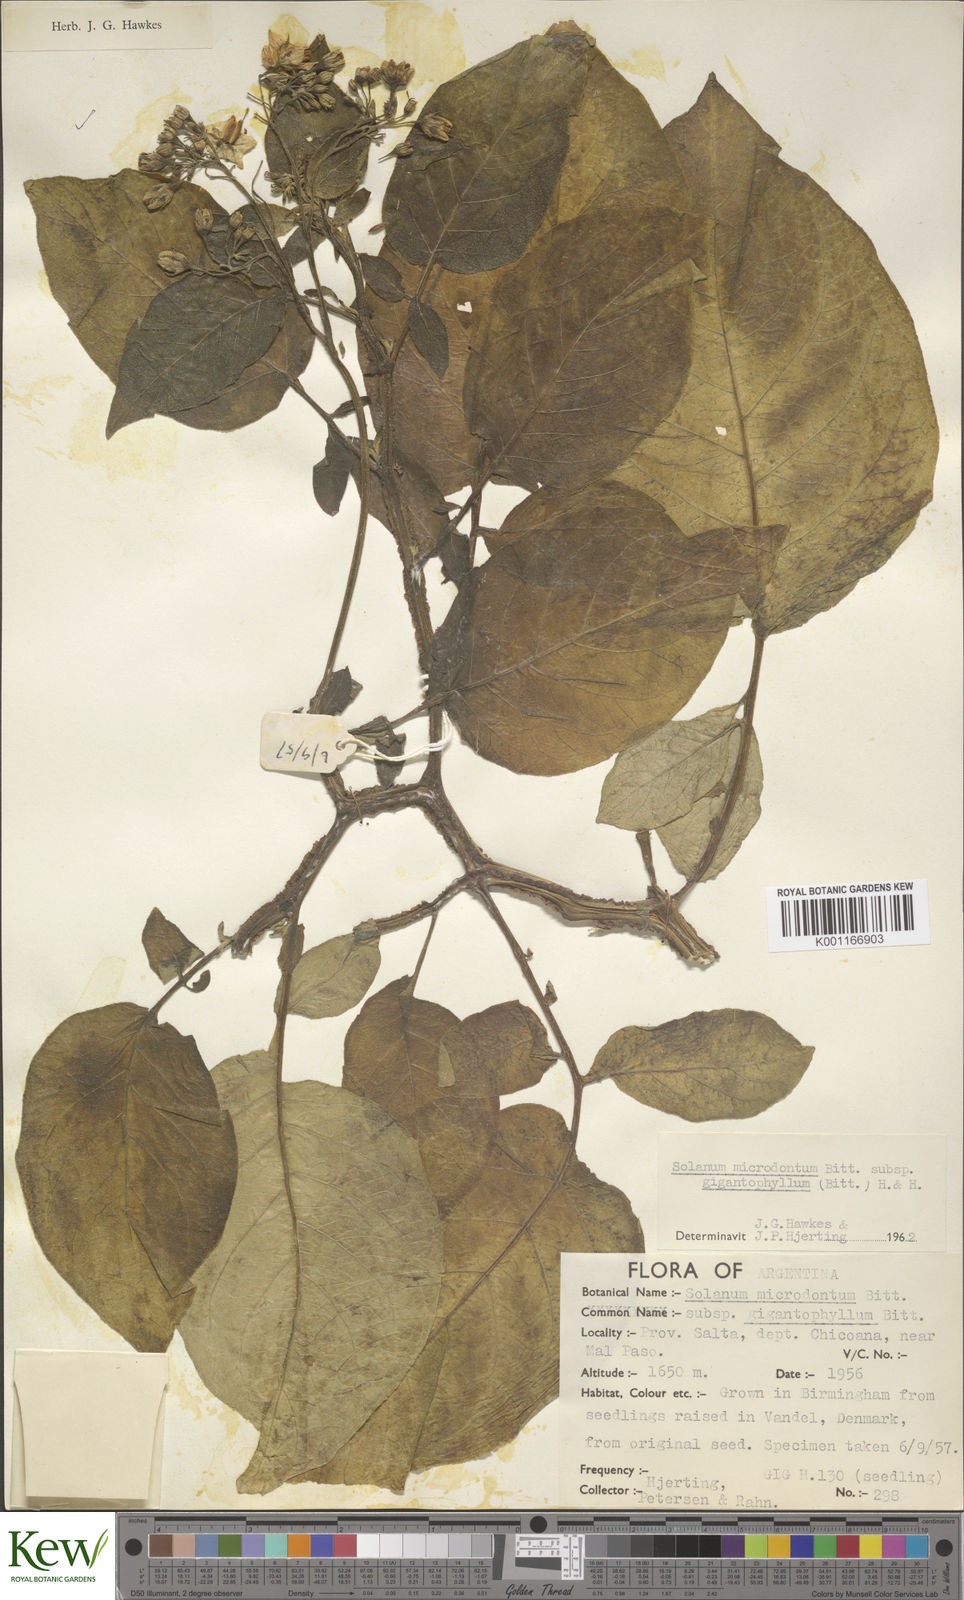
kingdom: Plantae
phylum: Tracheophyta
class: Magnoliopsida
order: Solanales
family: Solanaceae
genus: Solanum
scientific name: Solanum microdontum
